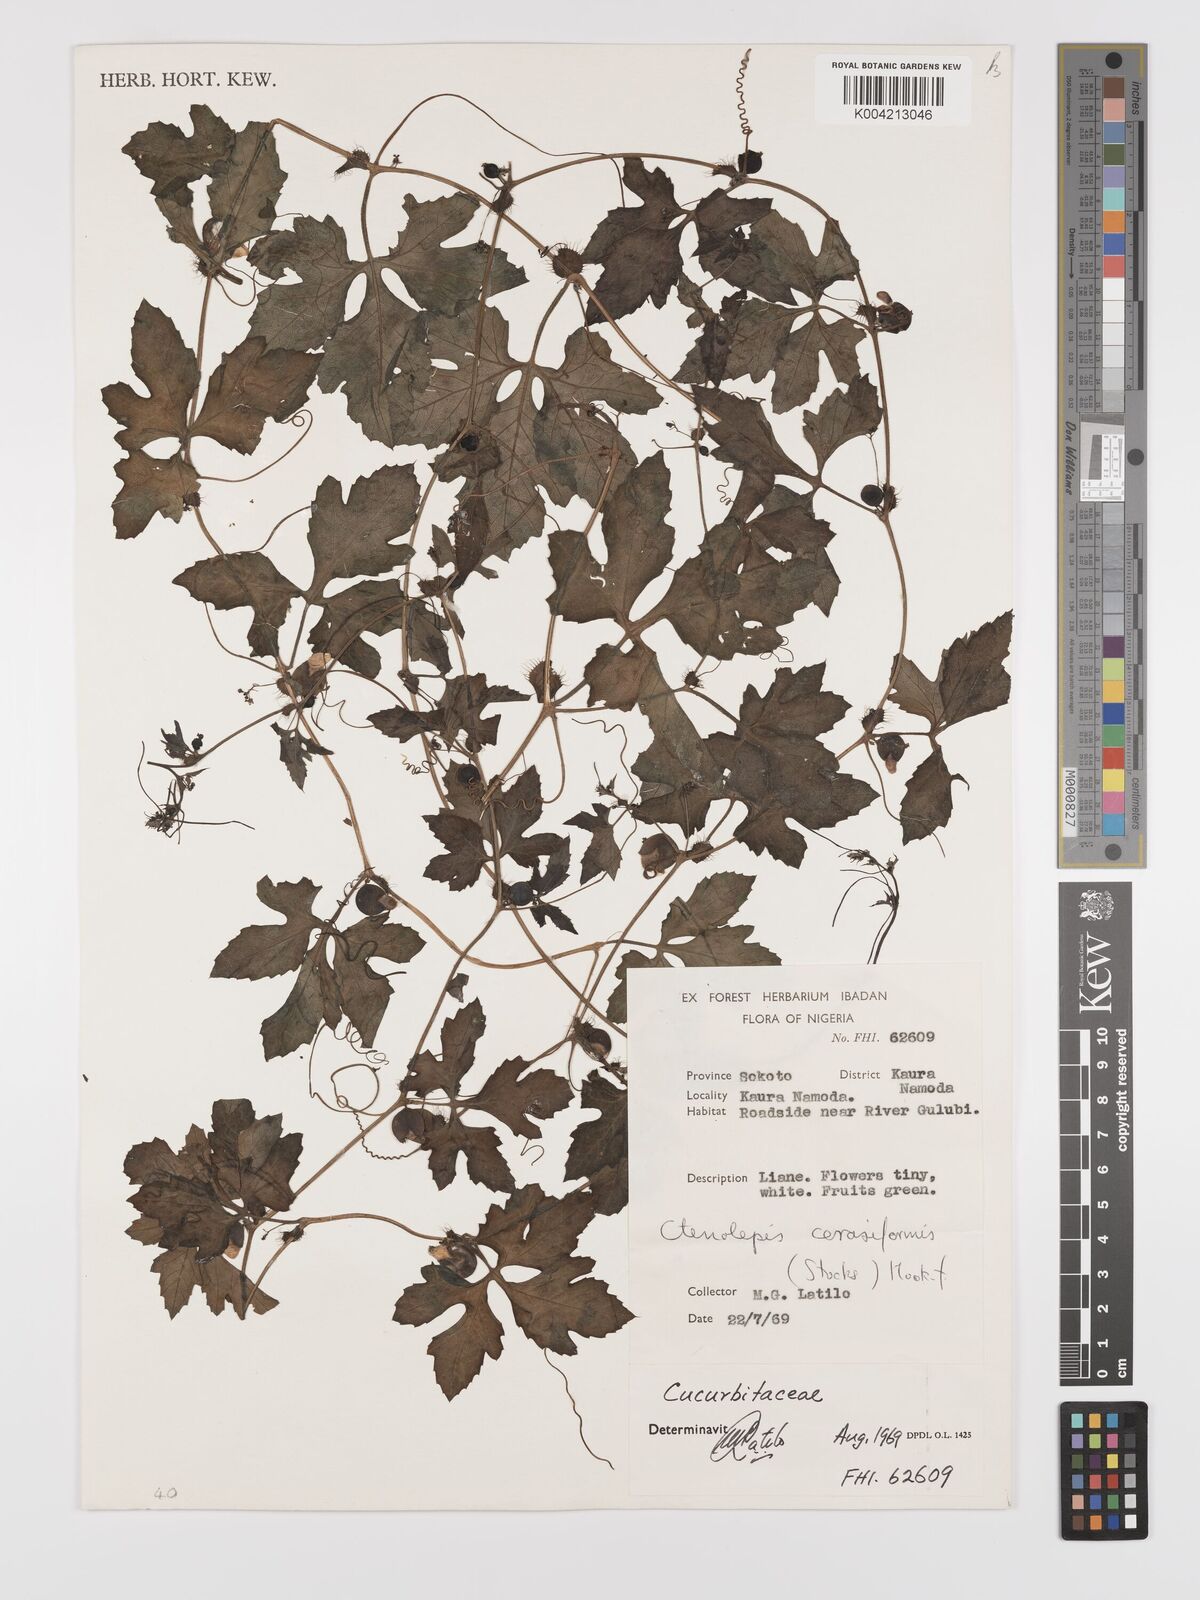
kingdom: Plantae
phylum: Tracheophyta
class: Magnoliopsida
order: Cucurbitales
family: Cucurbitaceae
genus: Blastania
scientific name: Blastania cerasiformis
